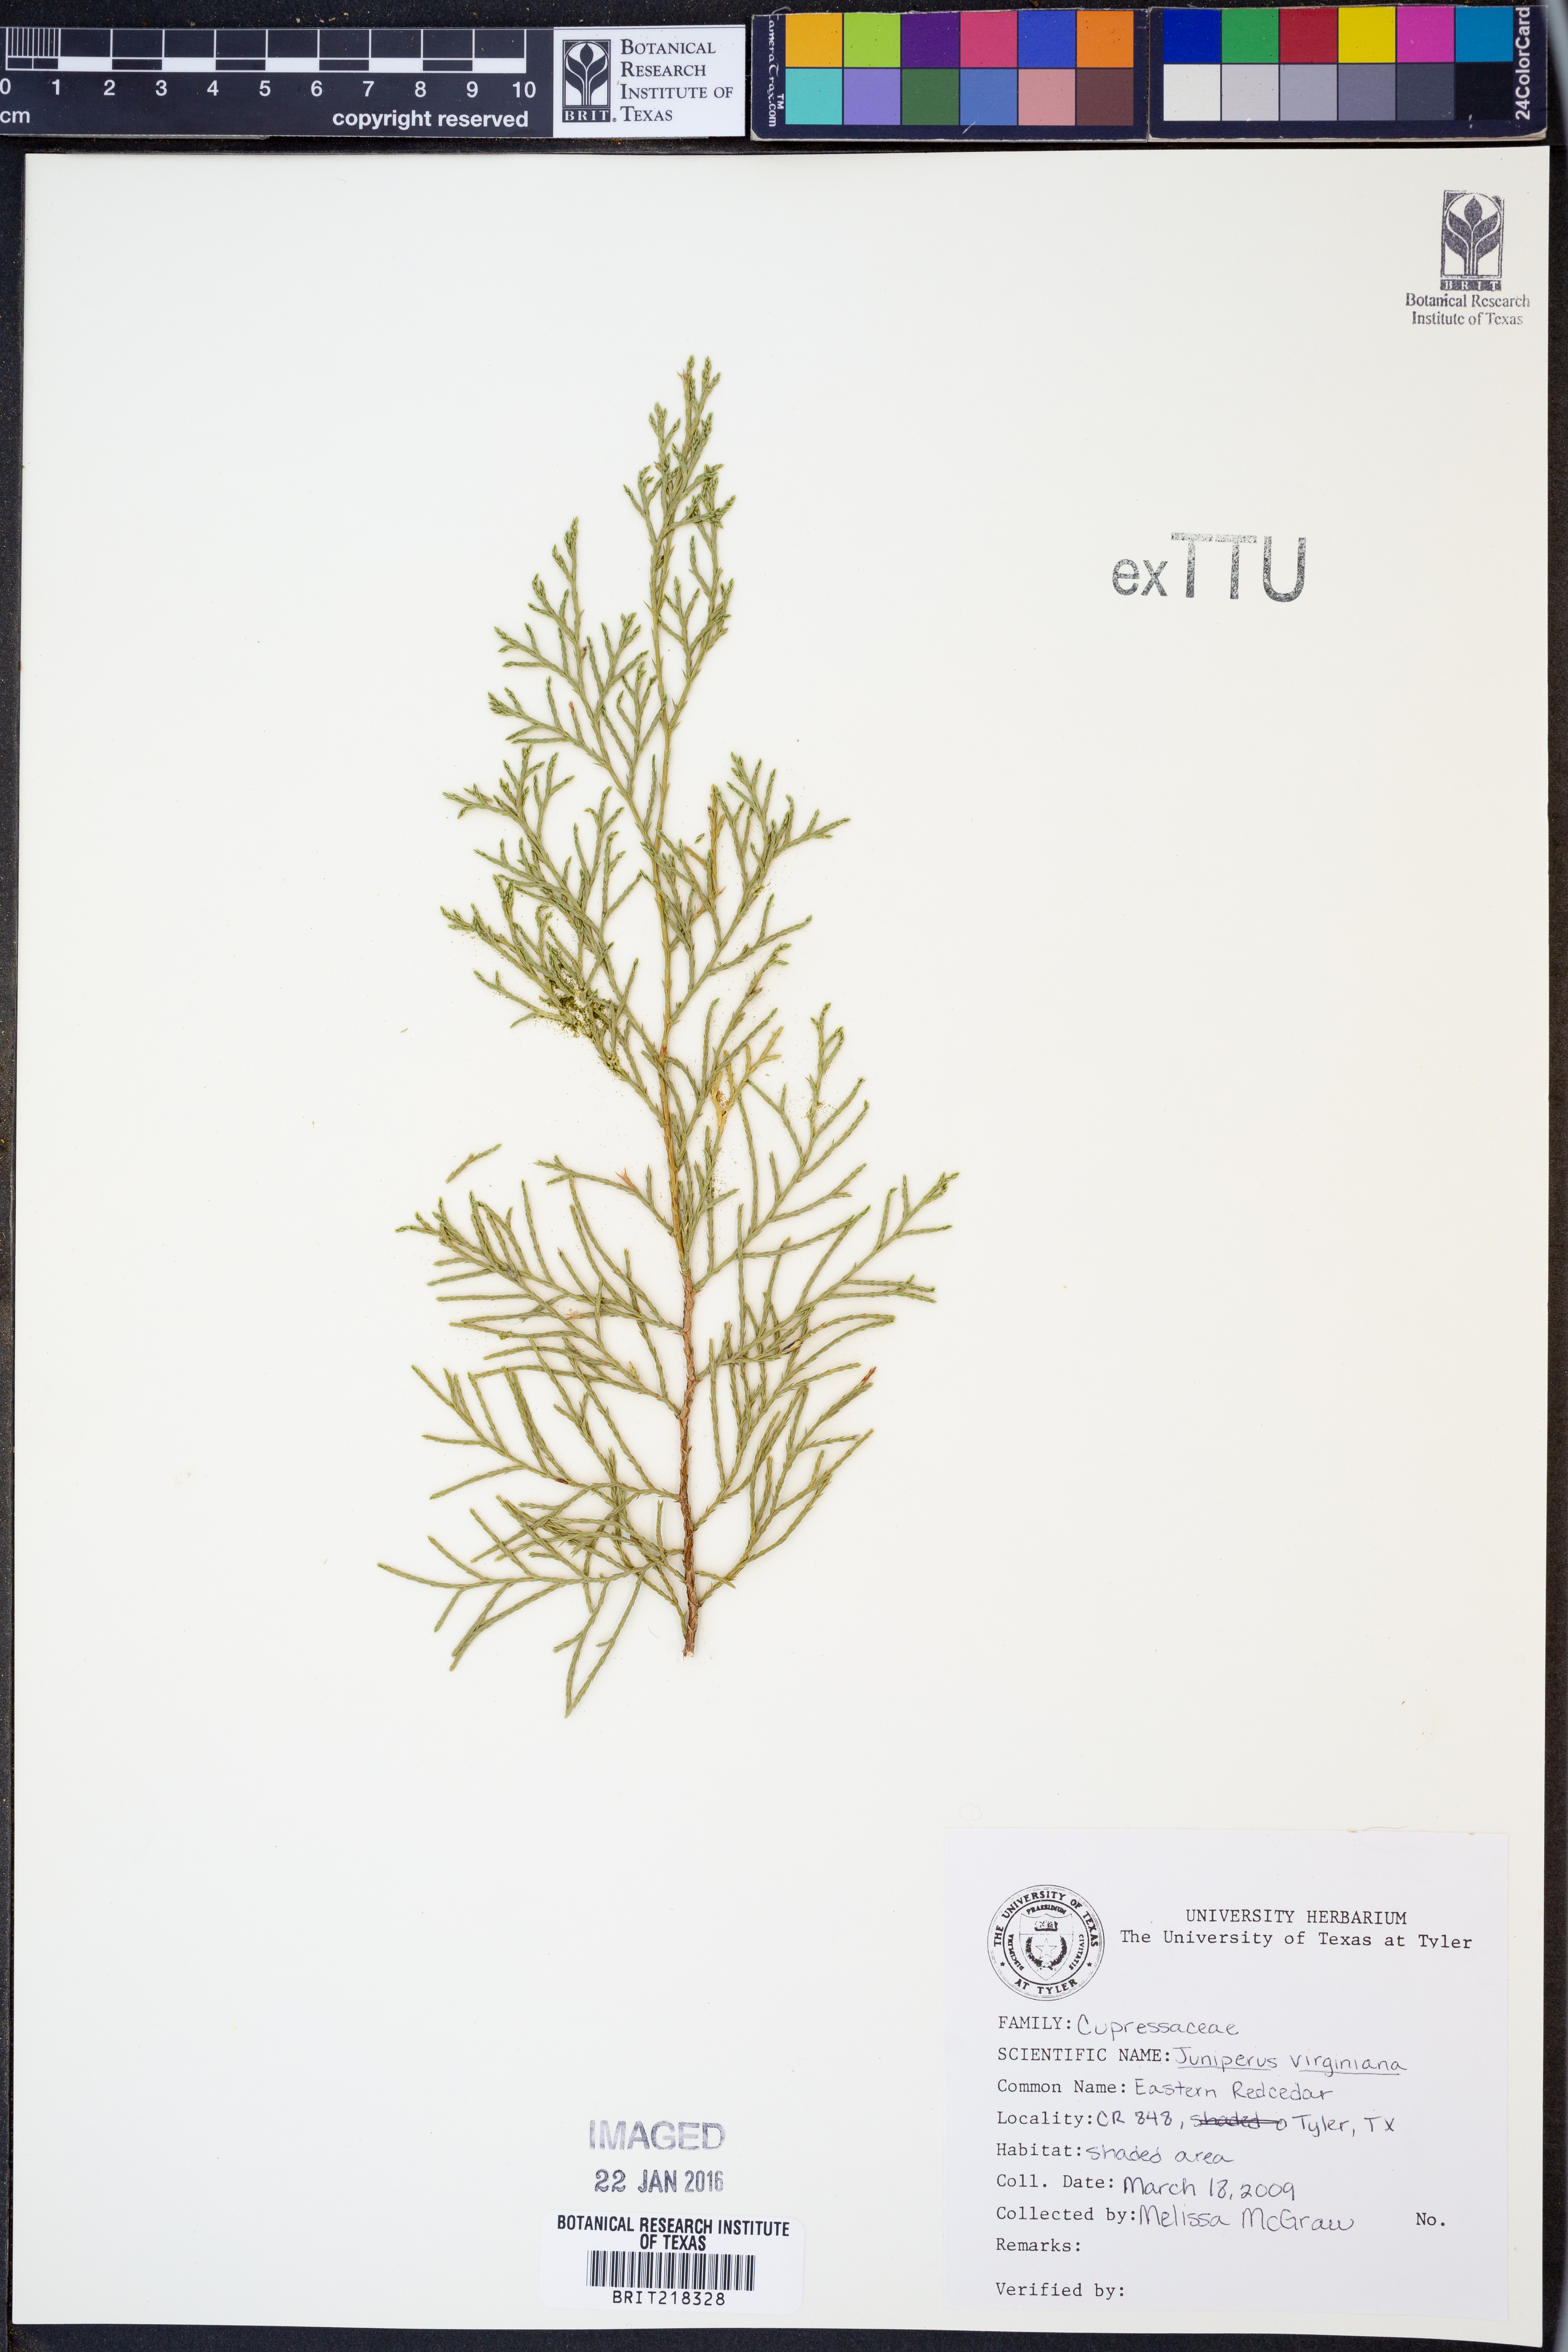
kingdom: Plantae
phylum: Tracheophyta
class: Pinopsida
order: Pinales
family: Cupressaceae
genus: Juniperus
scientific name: Juniperus virginiana
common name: Red juniper
